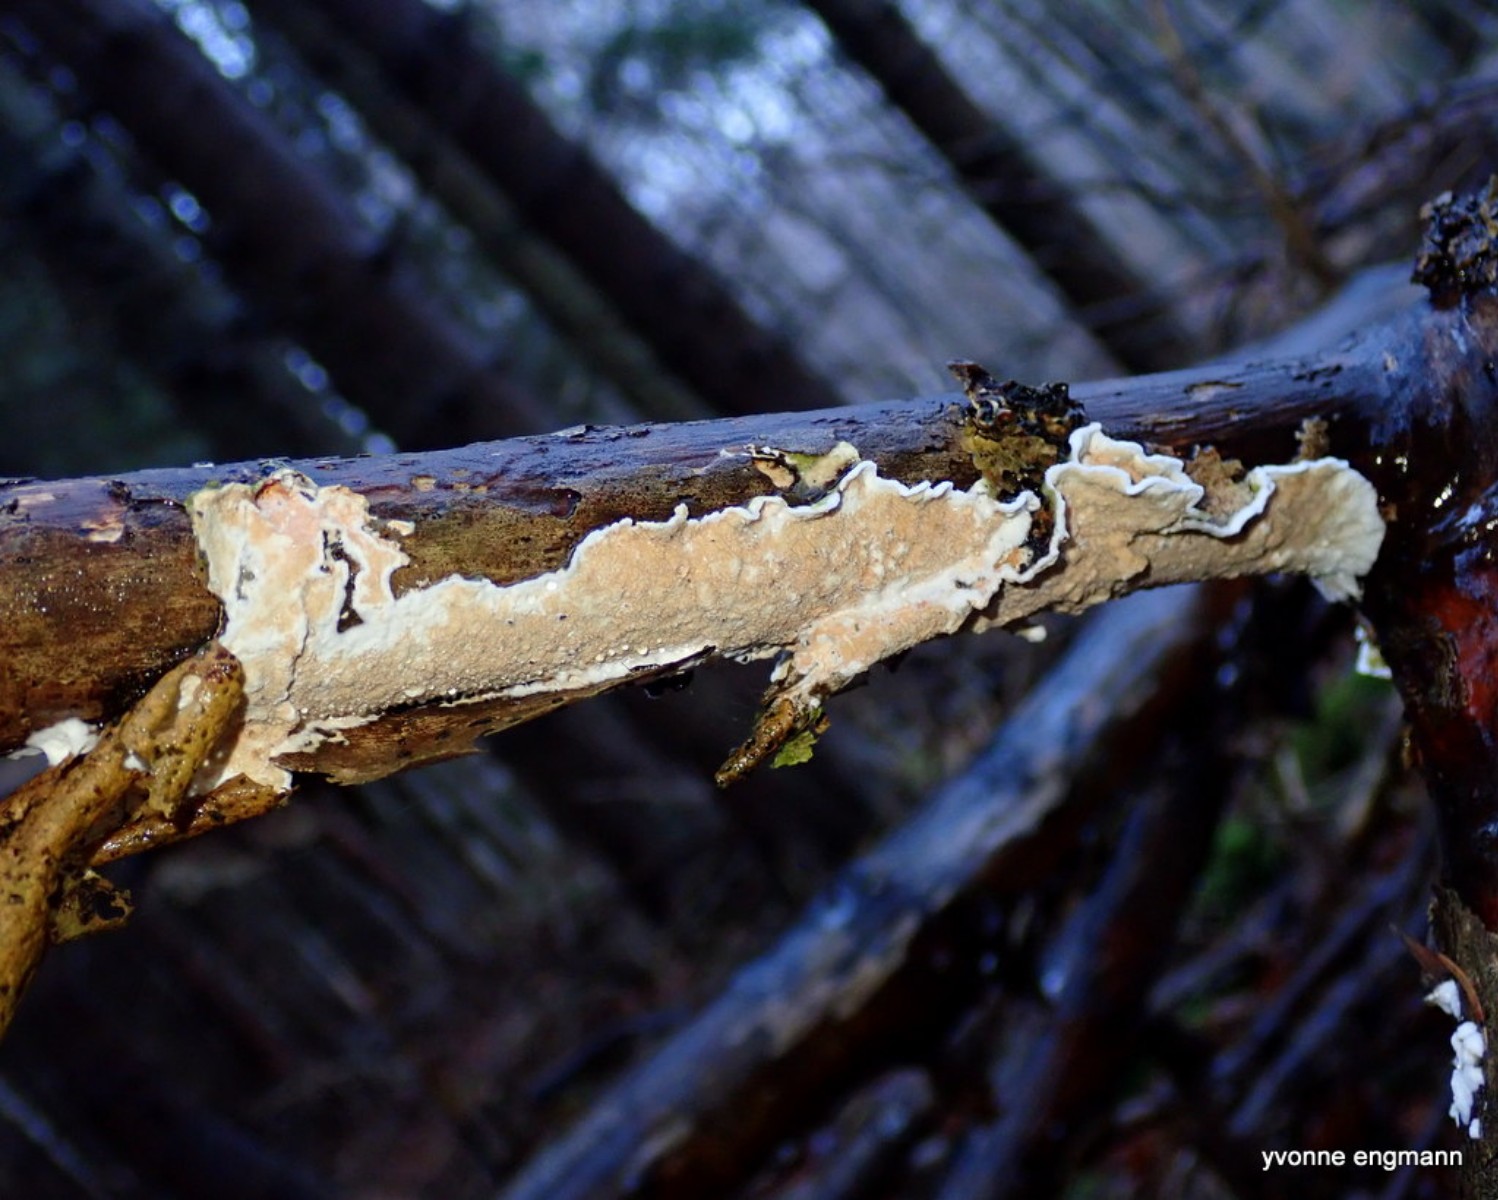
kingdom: Fungi
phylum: Basidiomycota
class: Agaricomycetes
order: Agaricales
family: Physalacriaceae
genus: Cylindrobasidium
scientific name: Cylindrobasidium evolvens
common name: sprækkehinde
